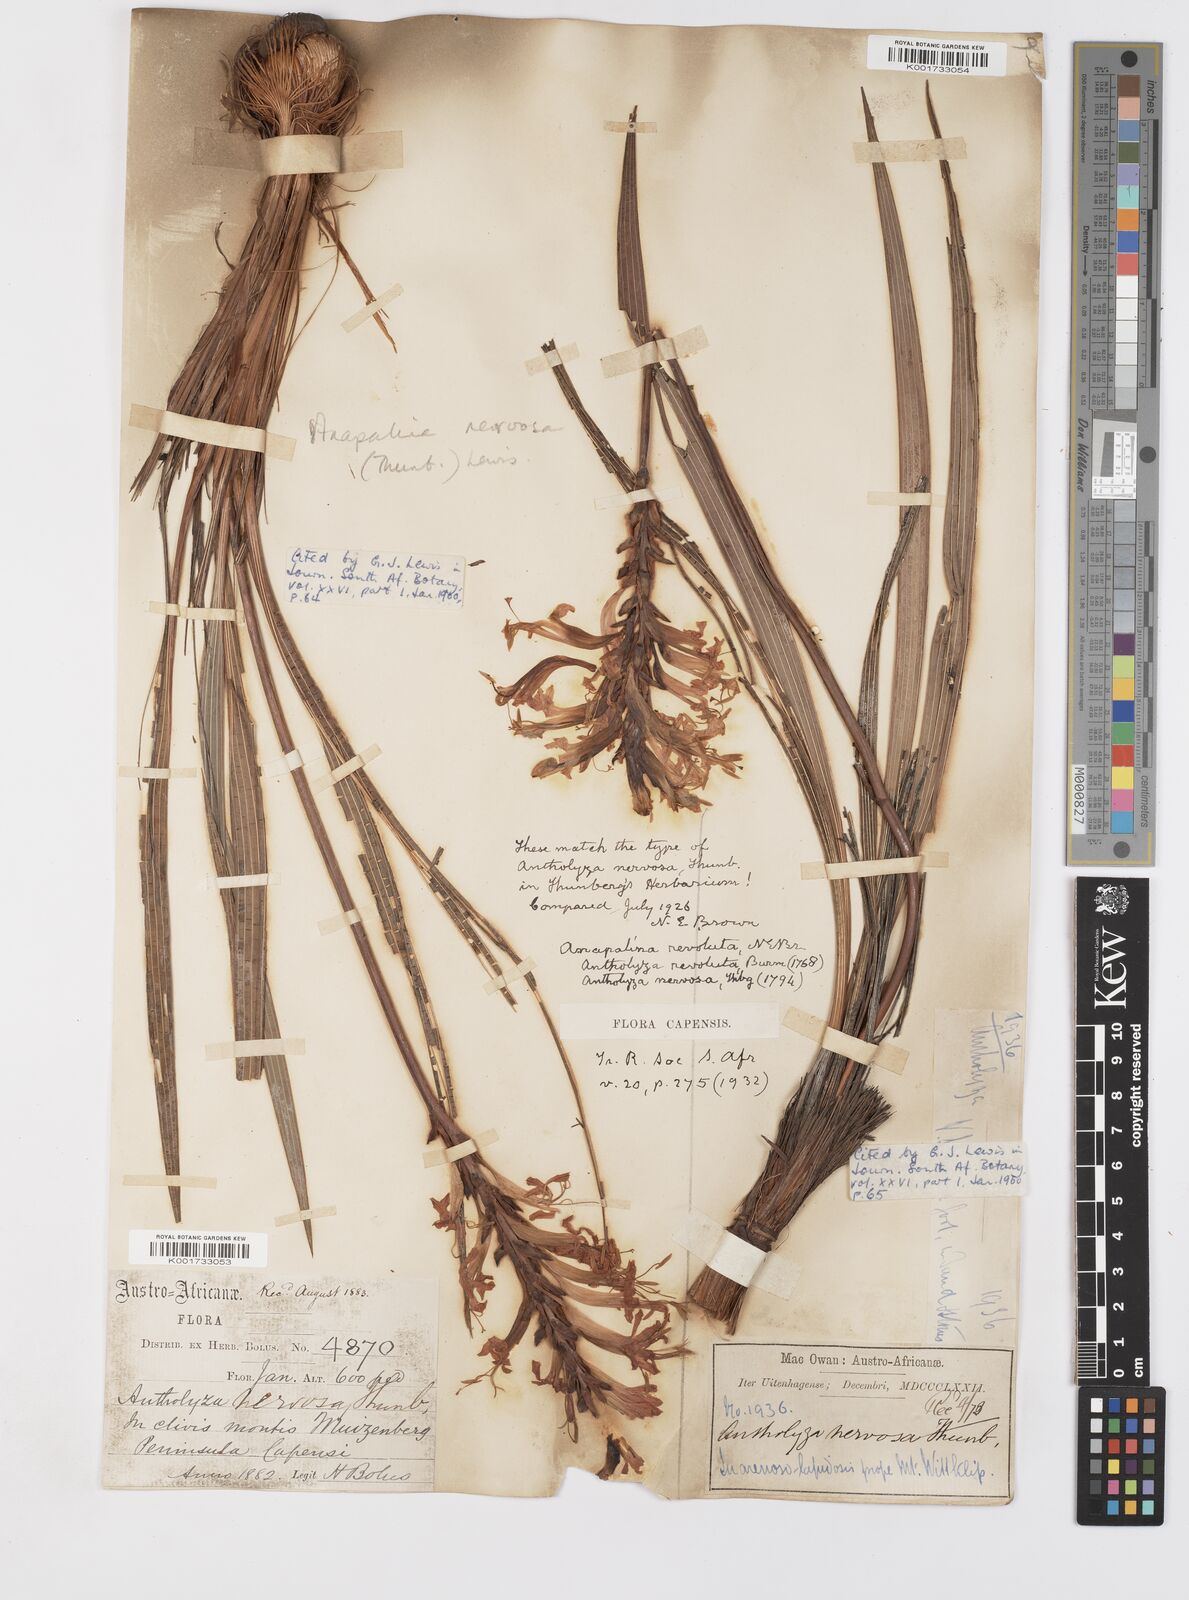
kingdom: Plantae
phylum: Tracheophyta
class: Liliopsida
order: Asparagales
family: Iridaceae
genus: Tritoniopsis
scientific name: Tritoniopsis nervosa
